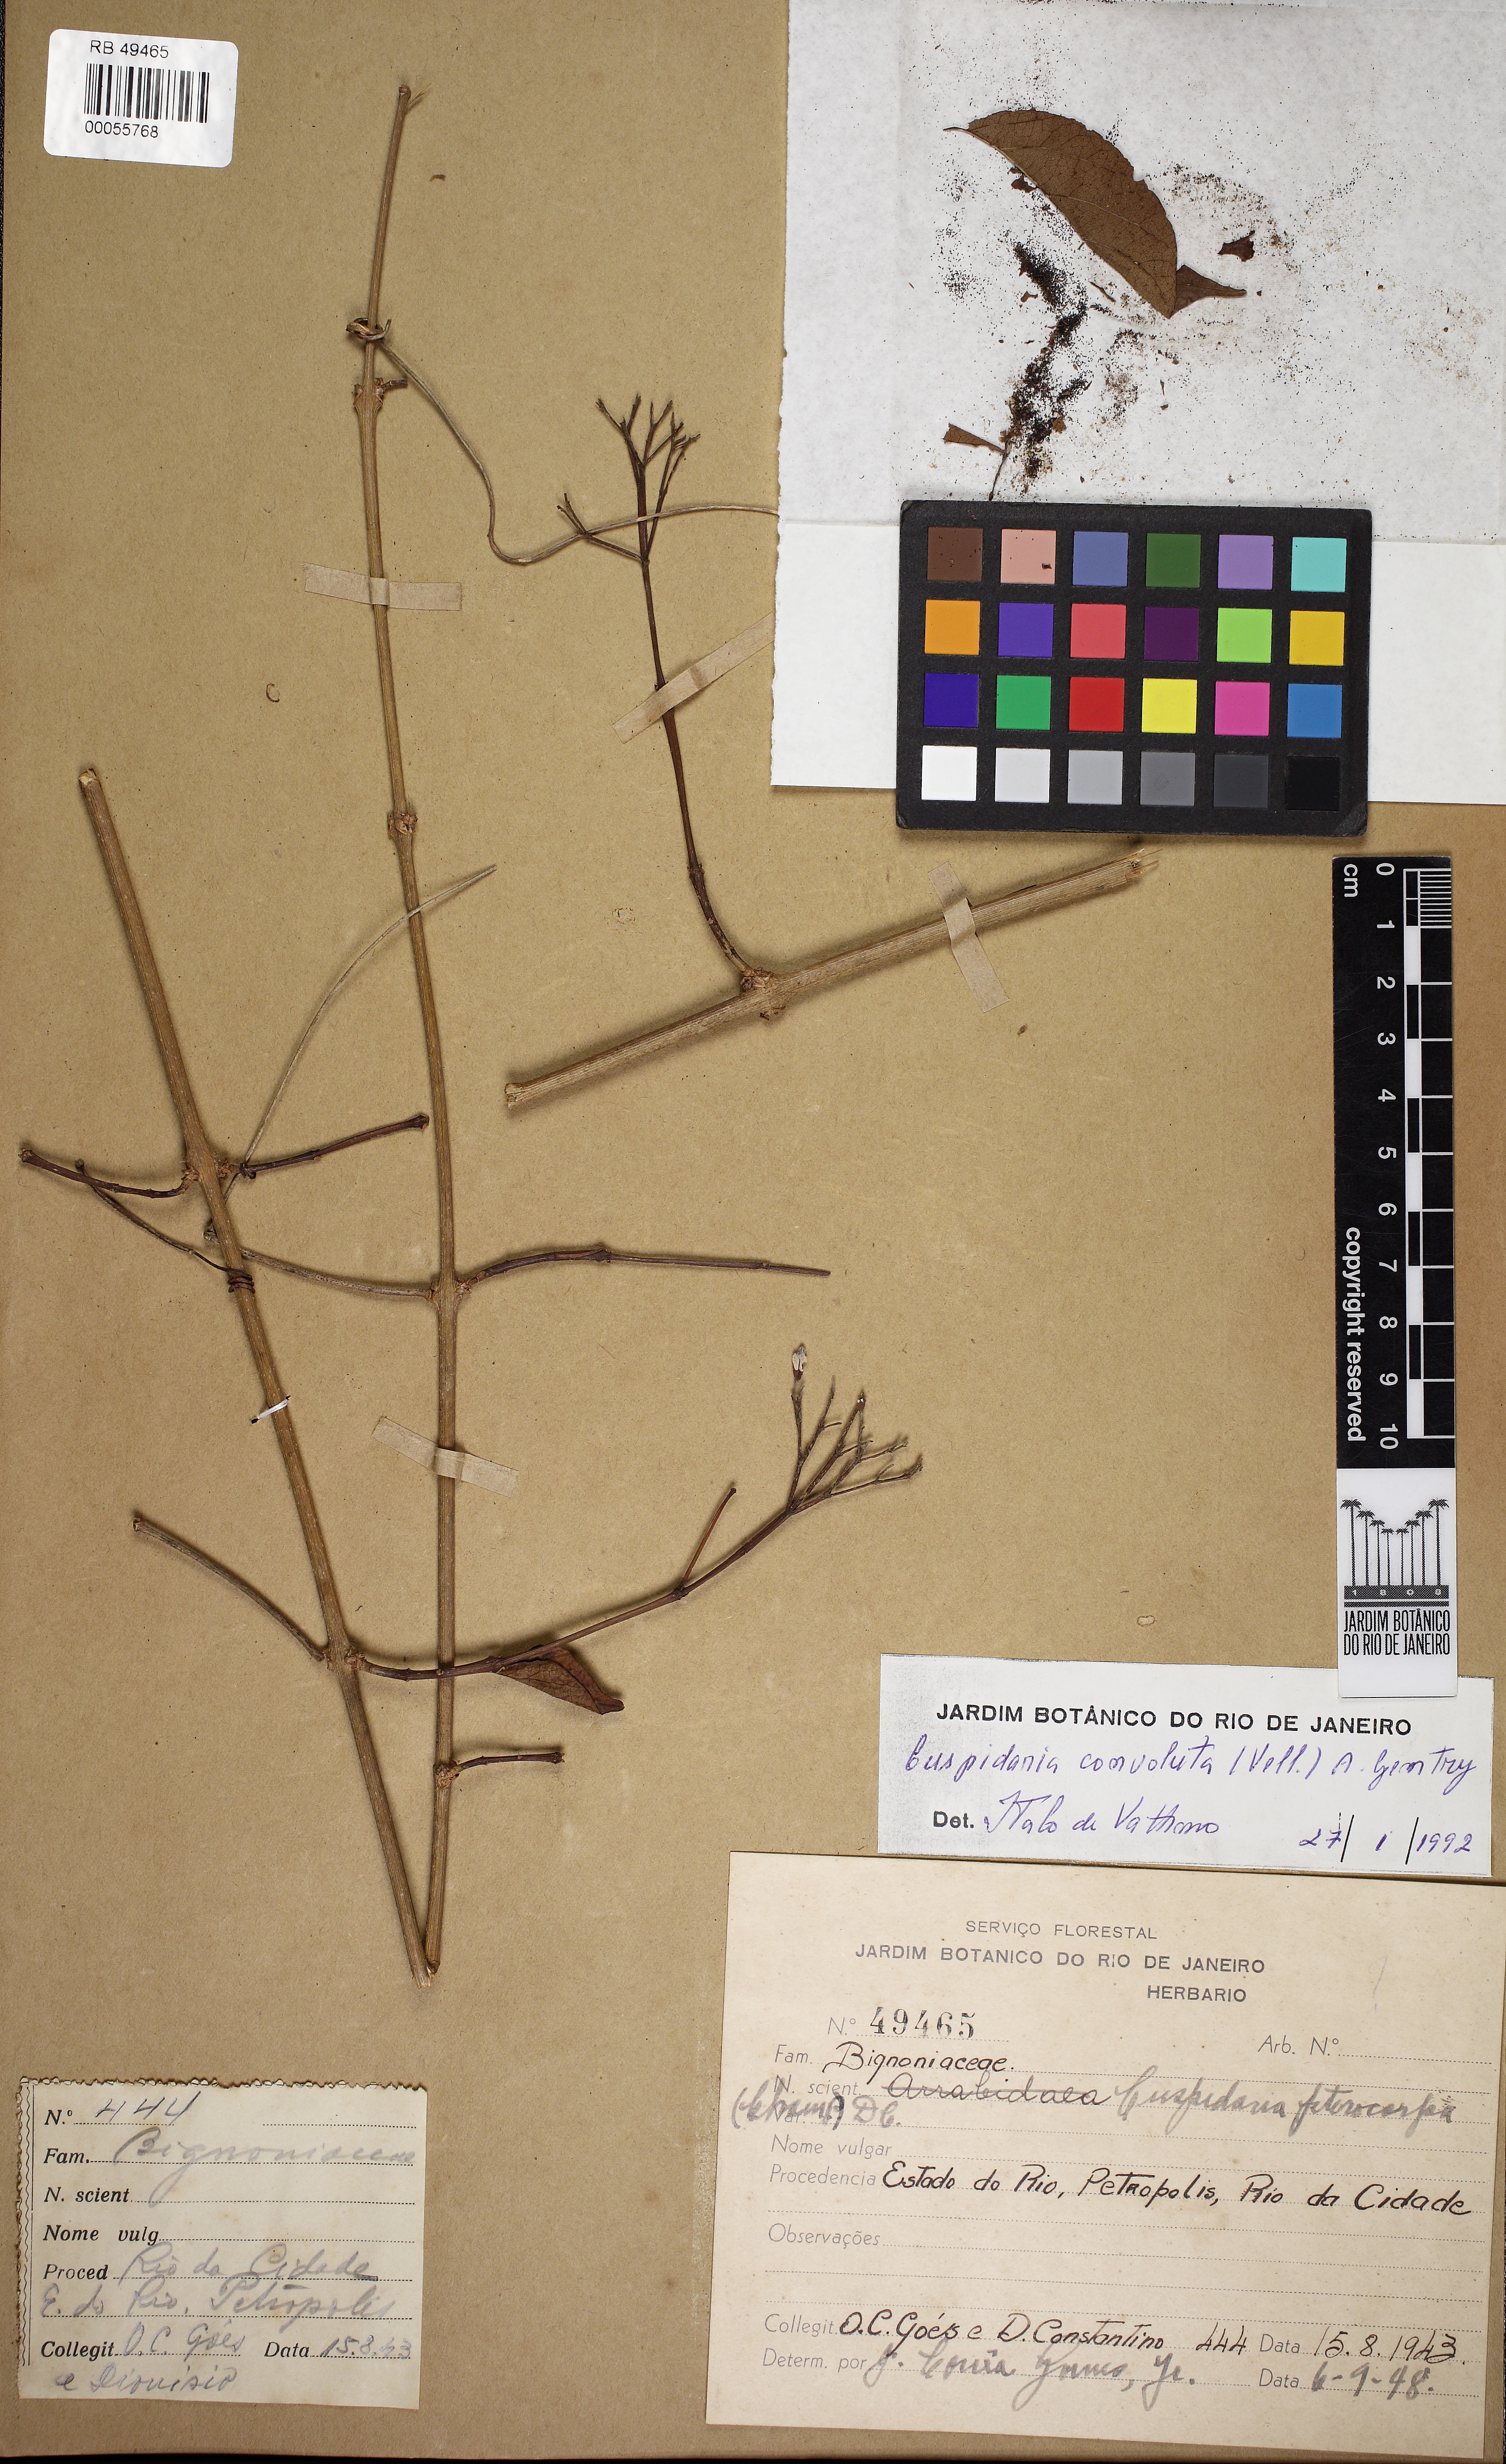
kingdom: Plantae
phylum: Tracheophyta
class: Magnoliopsida
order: Lamiales
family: Bignoniaceae
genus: Cuspidaria
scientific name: Cuspidaria convoluta
